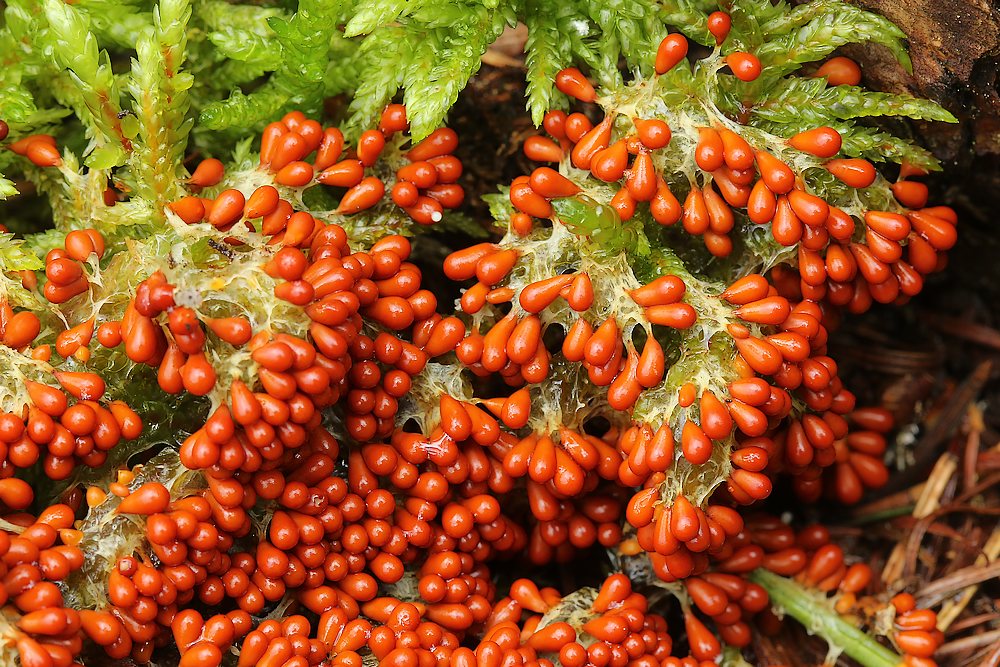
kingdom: Protozoa
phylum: Mycetozoa
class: Myxomycetes
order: Physarales
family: Physaraceae
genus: Leocarpus
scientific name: Leocarpus fragilis
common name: poleret glatfrø
